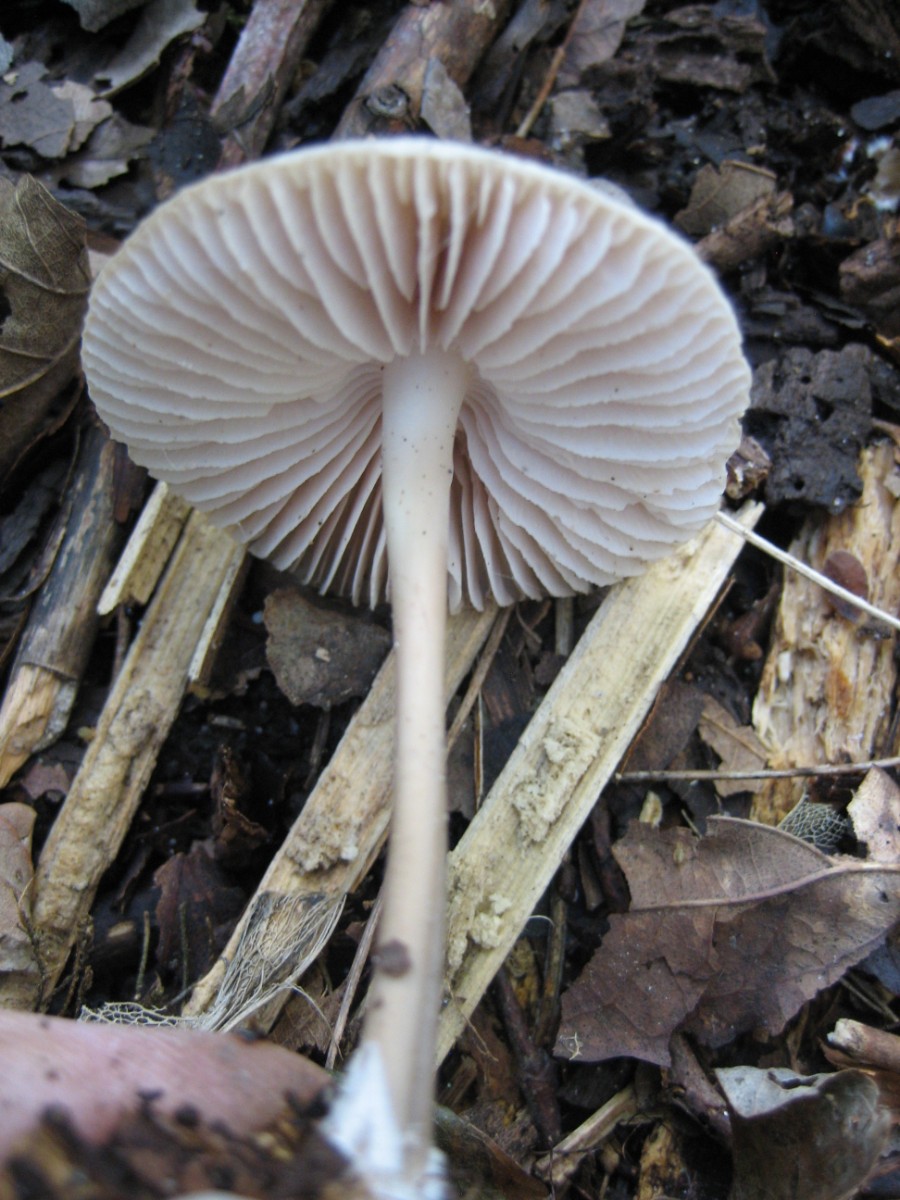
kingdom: Fungi
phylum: Basidiomycota
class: Agaricomycetes
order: Agaricales
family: Mycenaceae
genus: Mycena
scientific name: Mycena galericulata
